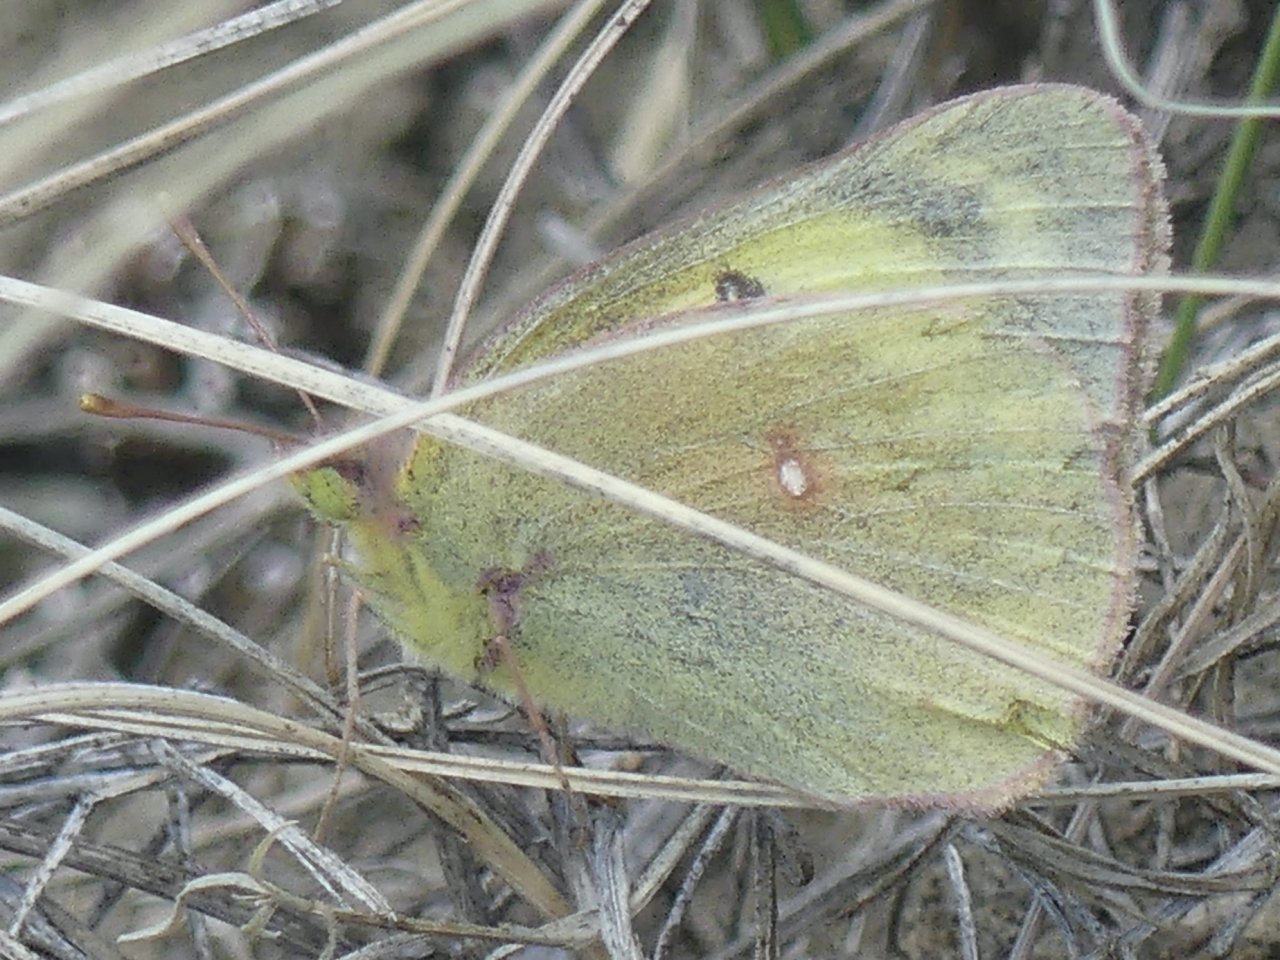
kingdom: Animalia
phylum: Arthropoda
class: Insecta
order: Lepidoptera
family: Pieridae
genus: Colias
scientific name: Colias
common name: Clouded Yellows
